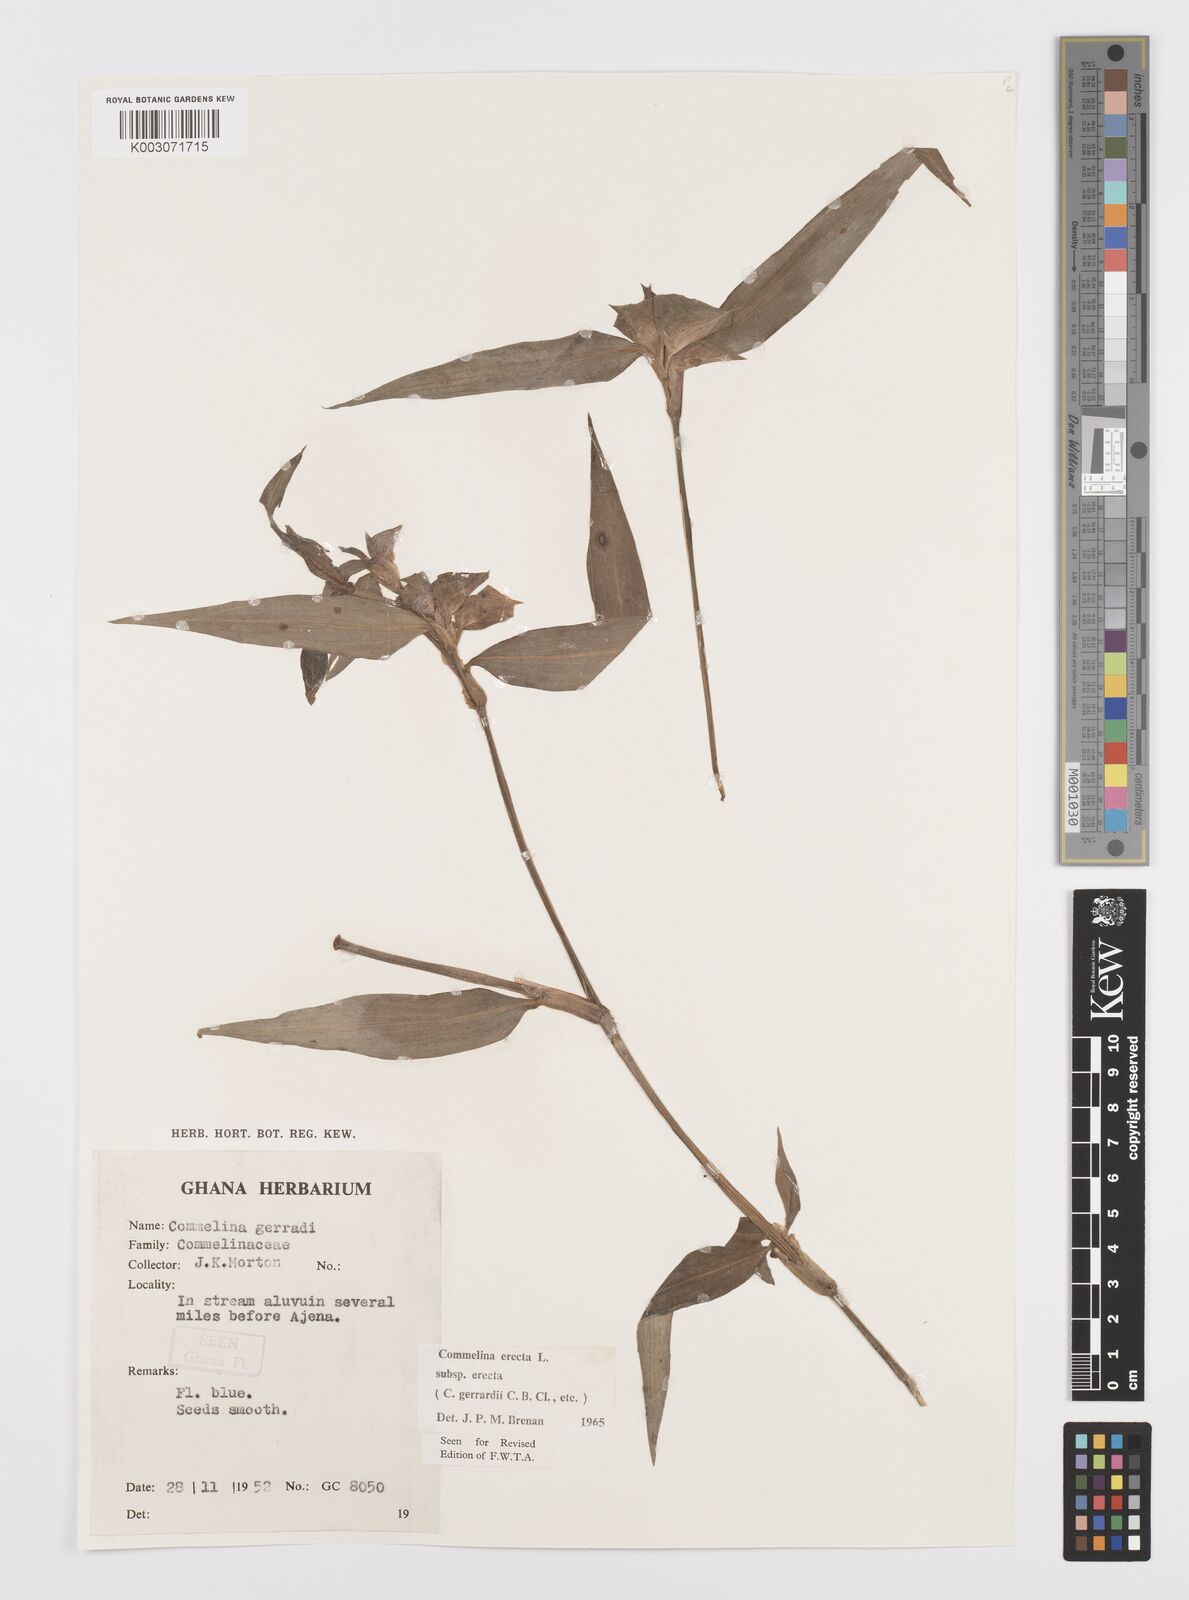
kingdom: Plantae
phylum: Tracheophyta
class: Liliopsida
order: Commelinales
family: Commelinaceae
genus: Commelina
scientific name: Commelina erecta
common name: Blousel blommetjie
